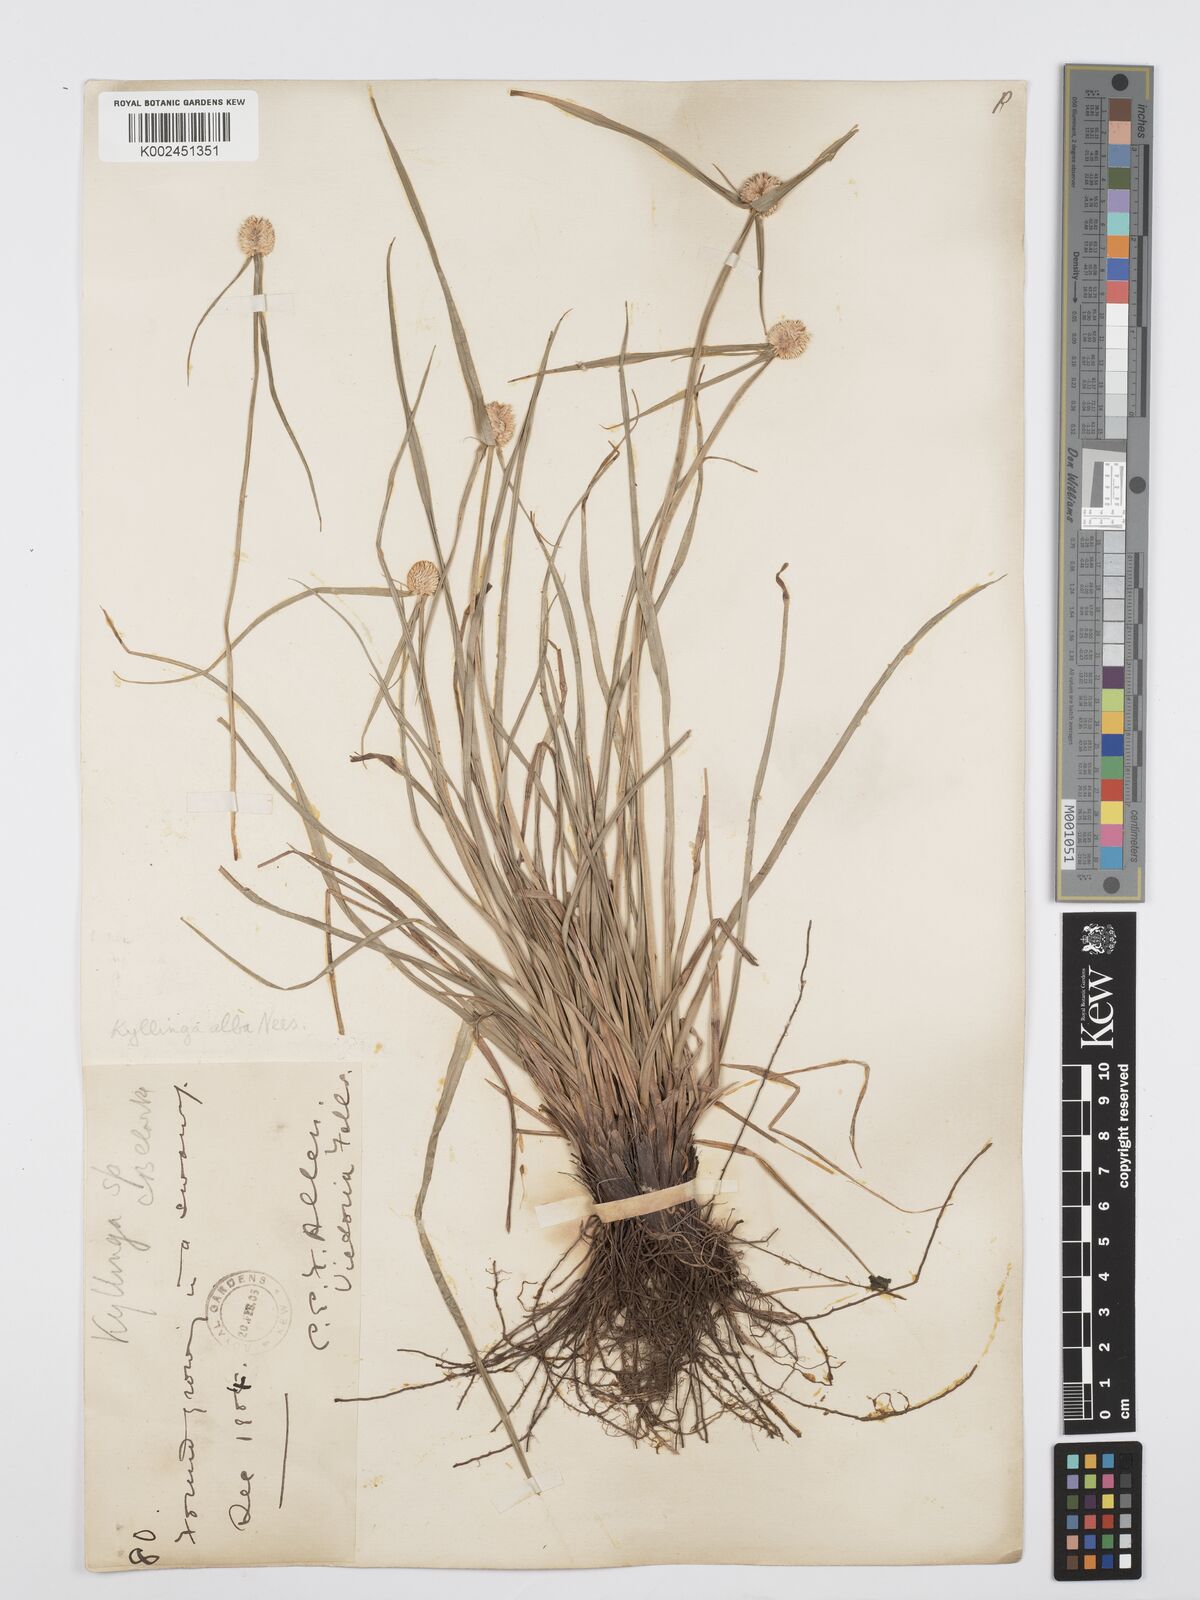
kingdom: Plantae
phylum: Tracheophyta
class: Liliopsida
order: Poales
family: Cyperaceae
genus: Cyperus
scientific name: Cyperus
